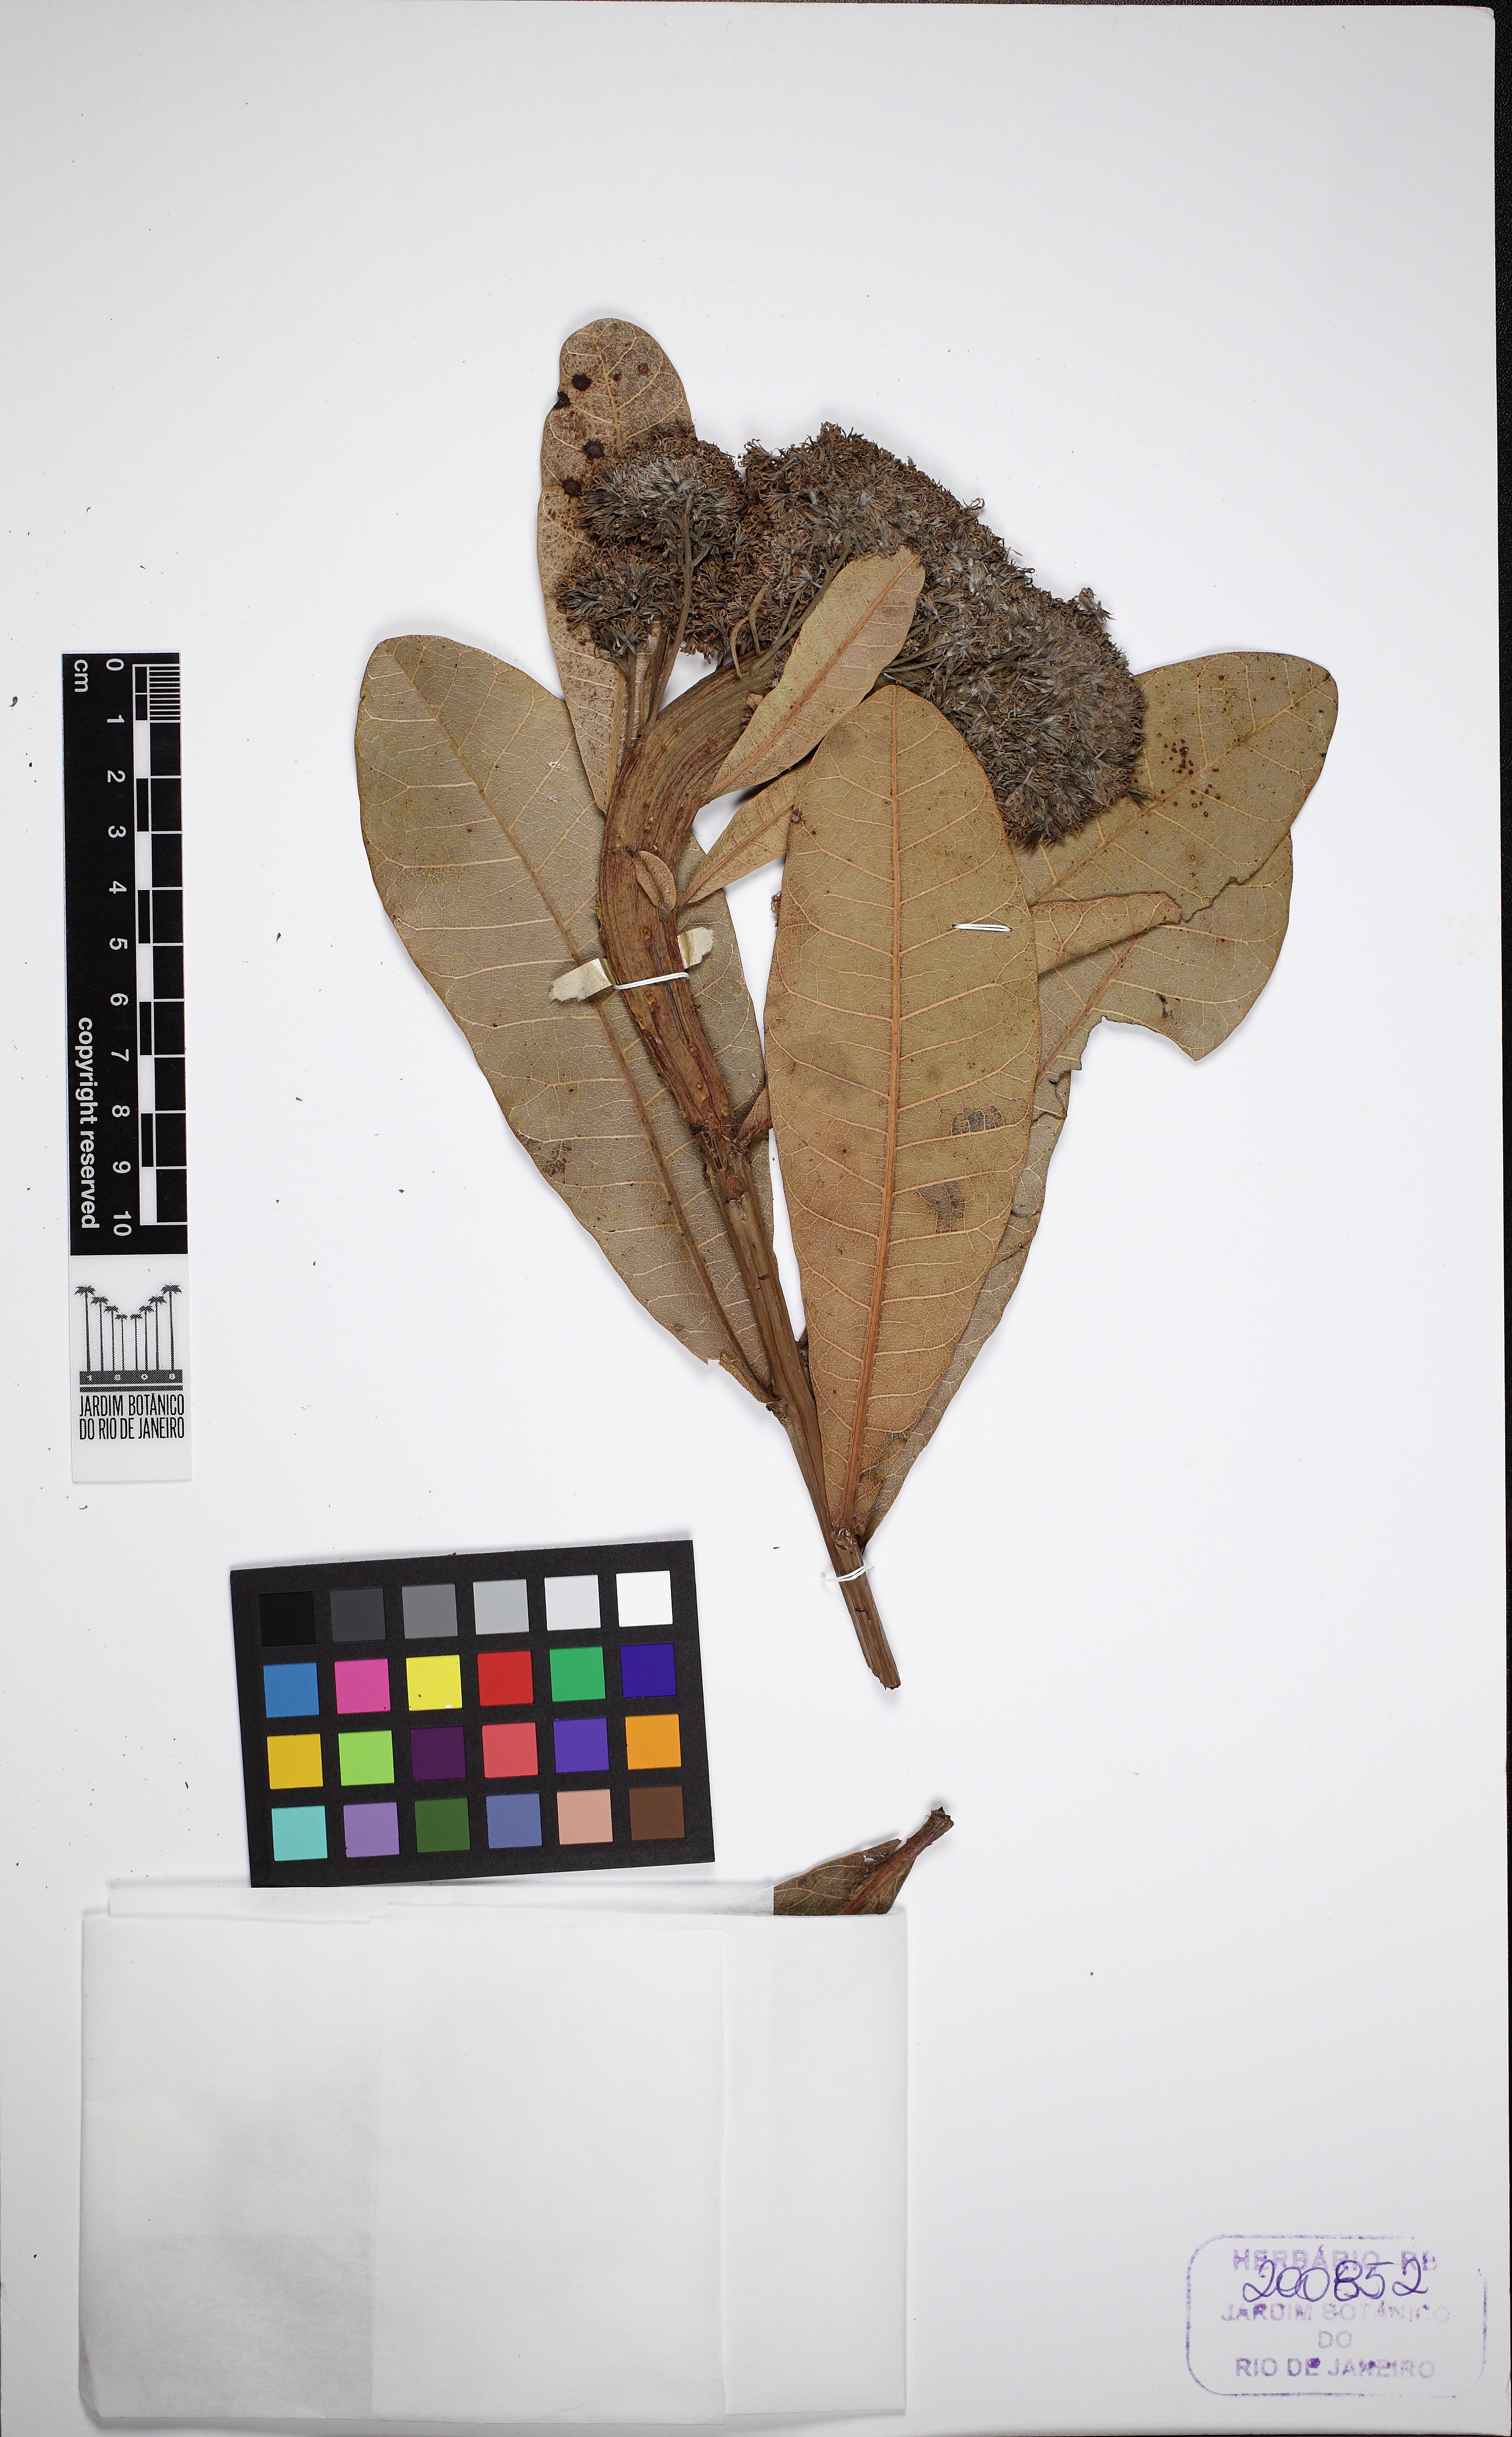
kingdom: Plantae
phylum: Tracheophyta
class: Magnoliopsida
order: Sapindales
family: Anacardiaceae
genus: Anacardium
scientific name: Anacardium
